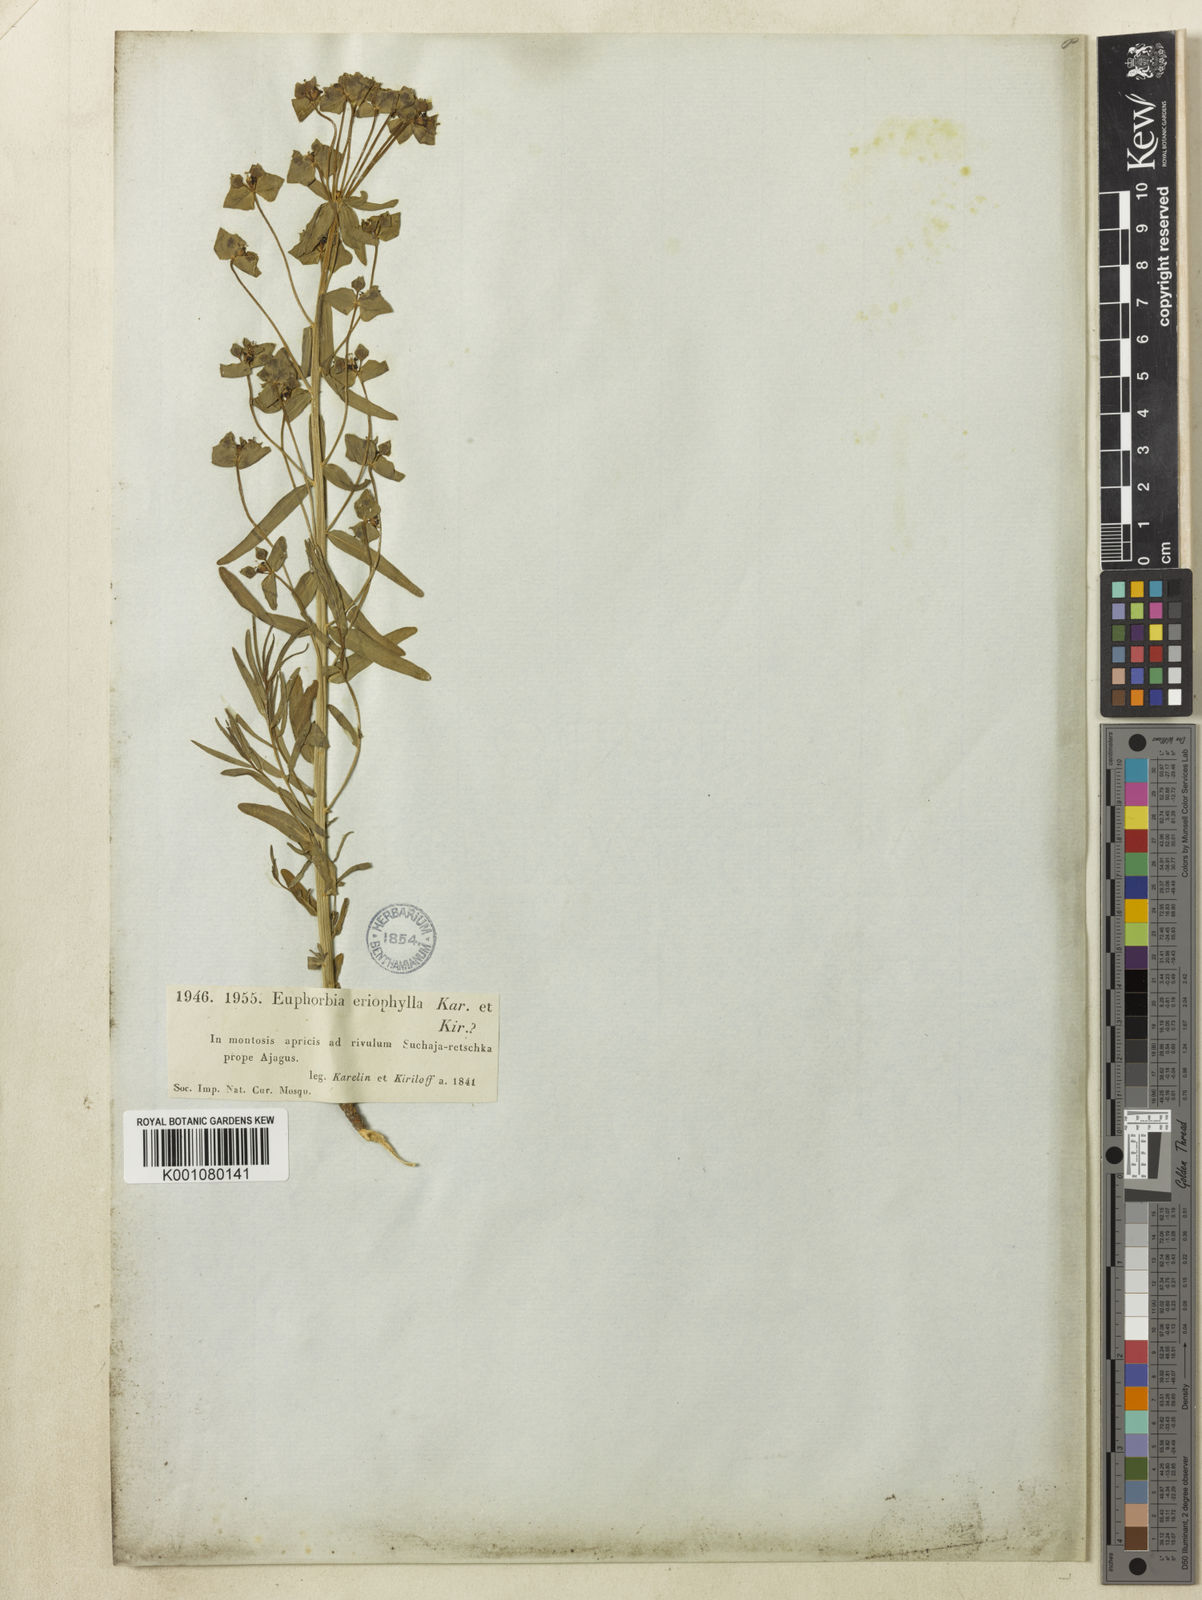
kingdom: Plantae
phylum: Tracheophyta
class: Magnoliopsida
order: Malpighiales
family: Euphorbiaceae
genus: Euphorbia
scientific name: Euphorbia
